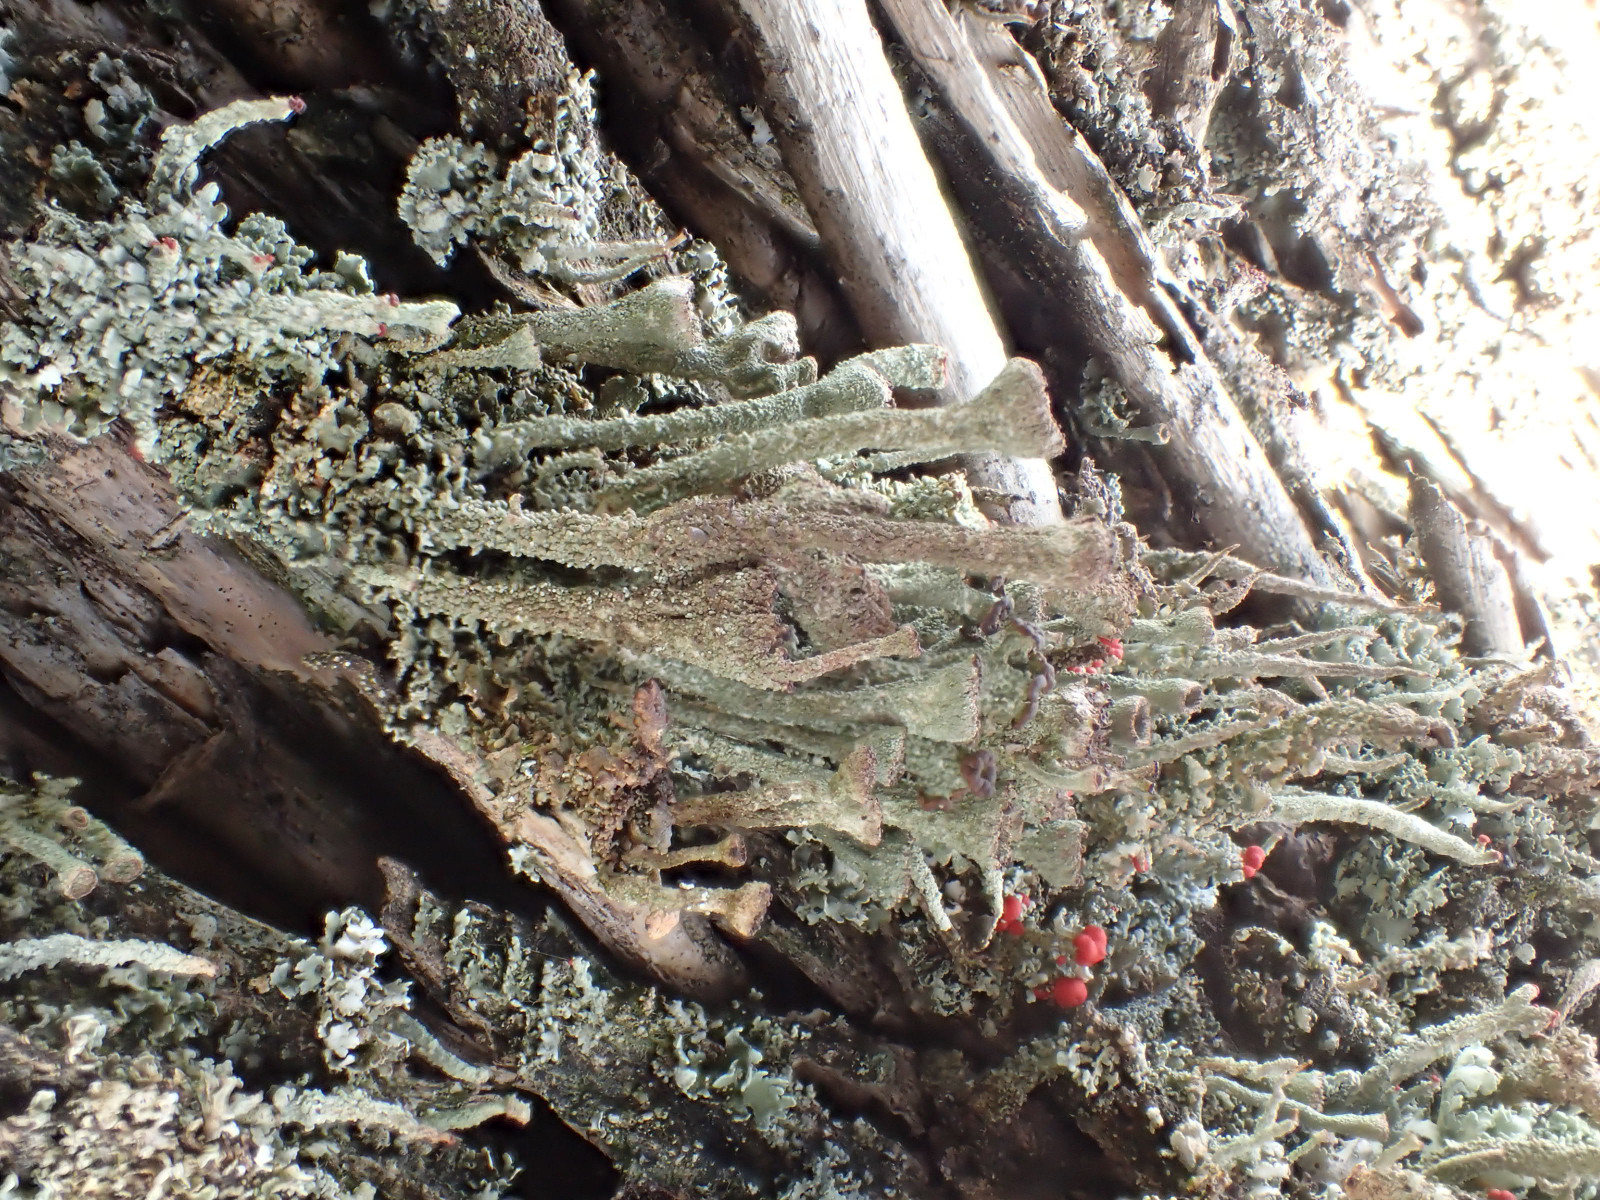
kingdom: Fungi
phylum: Ascomycota
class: Lecanoromycetes
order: Lecanorales
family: Cladoniaceae
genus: Cladonia
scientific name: Cladonia
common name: brungrøn bægerlav
